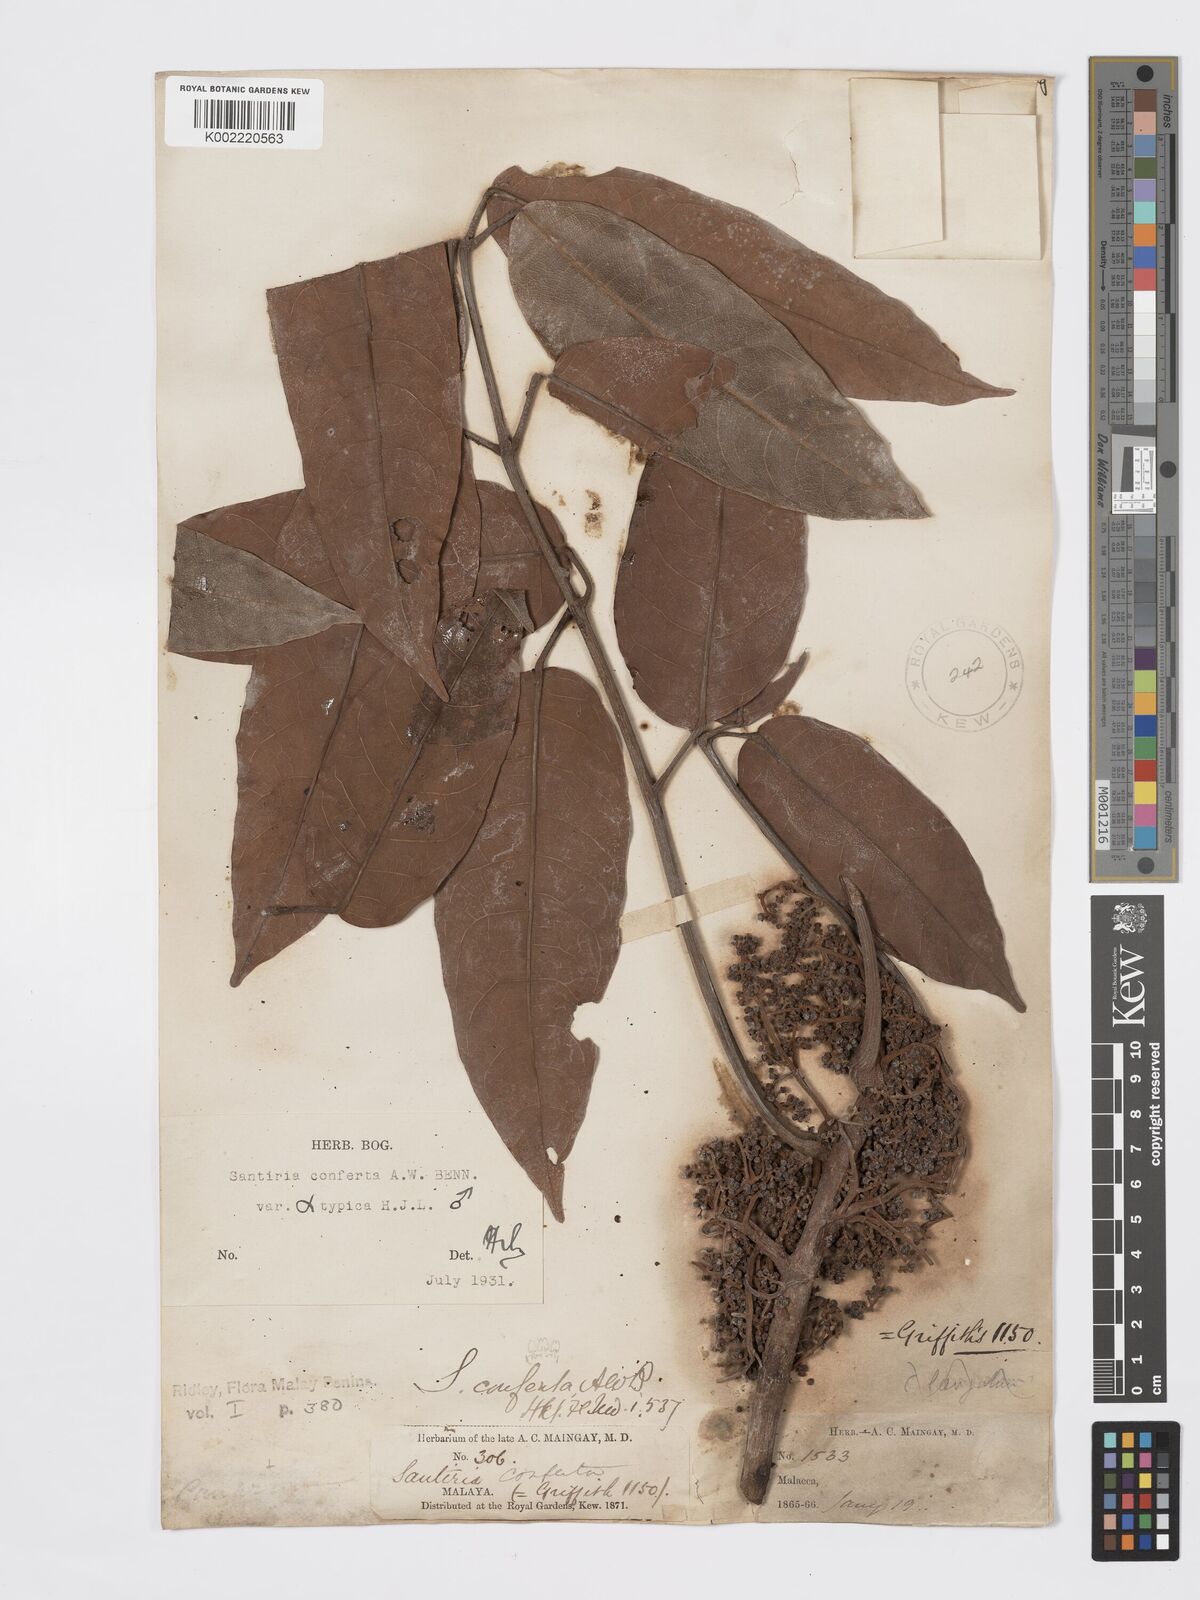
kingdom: Plantae
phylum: Tracheophyta
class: Magnoliopsida
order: Sapindales
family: Burseraceae
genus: Santiria
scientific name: Santiria conferta
